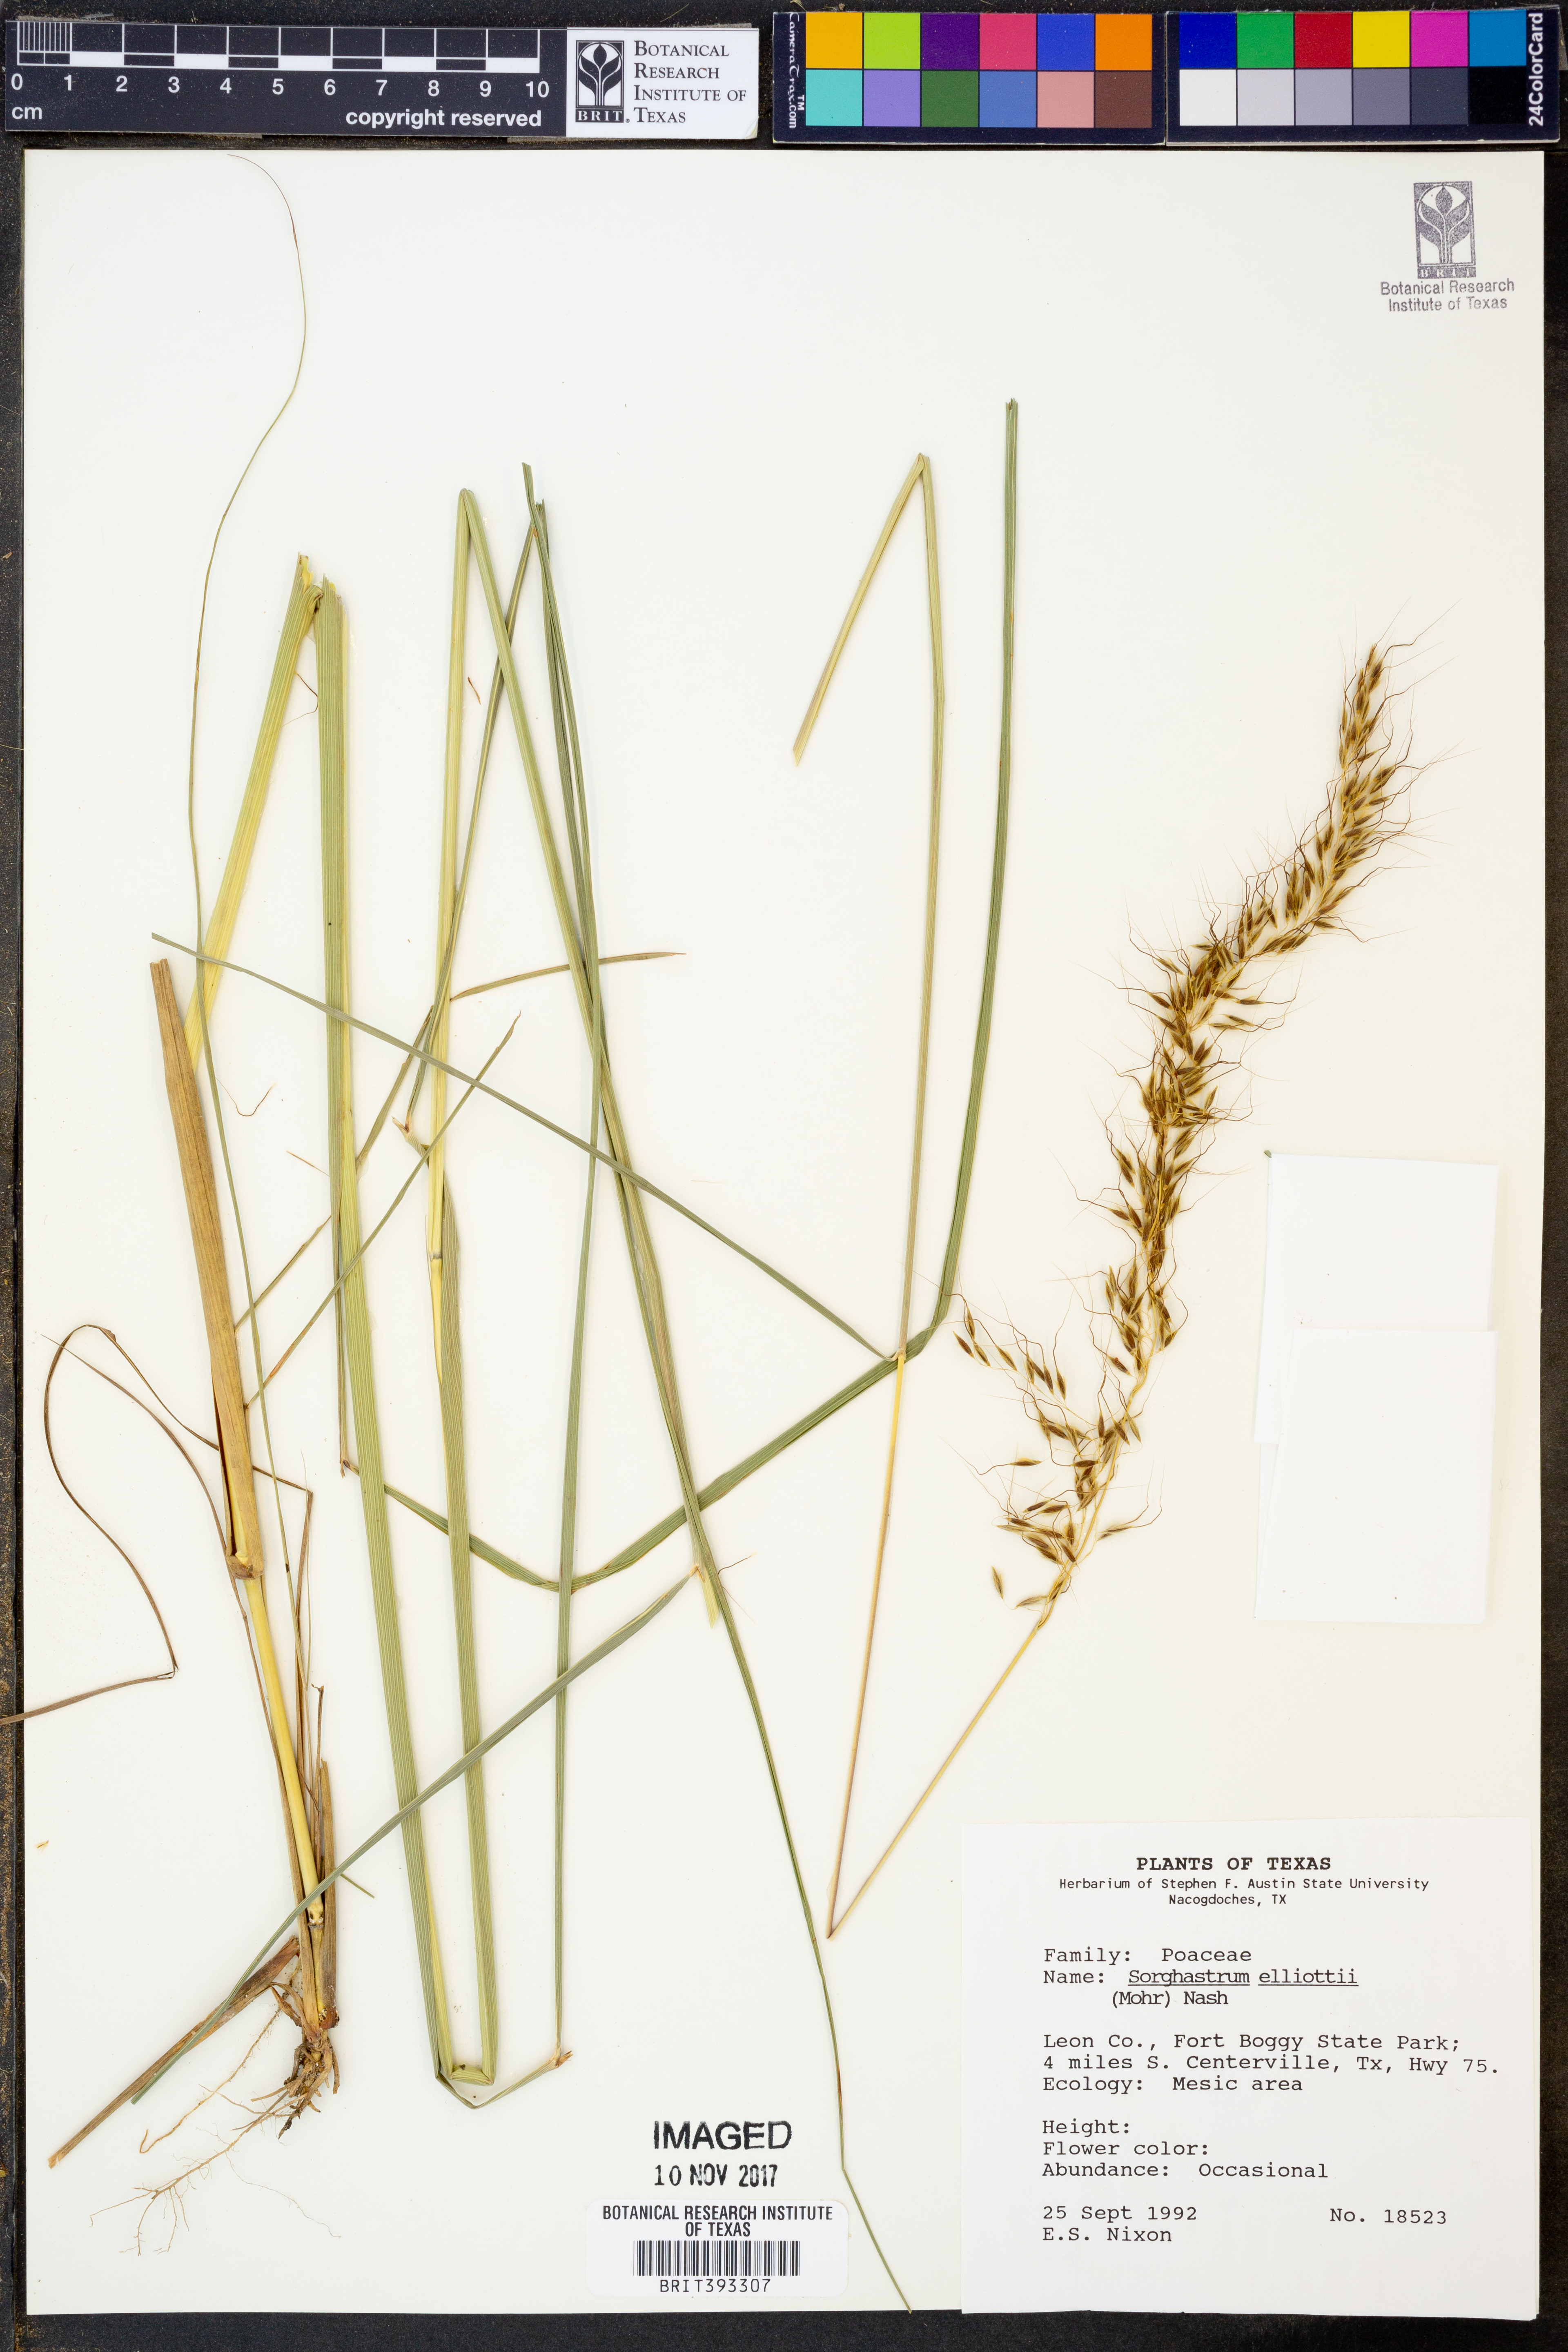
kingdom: Plantae
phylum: Tracheophyta
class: Liliopsida
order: Poales
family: Poaceae
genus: Sorghastrum
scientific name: Sorghastrum elliottii
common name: Slender indian grass
